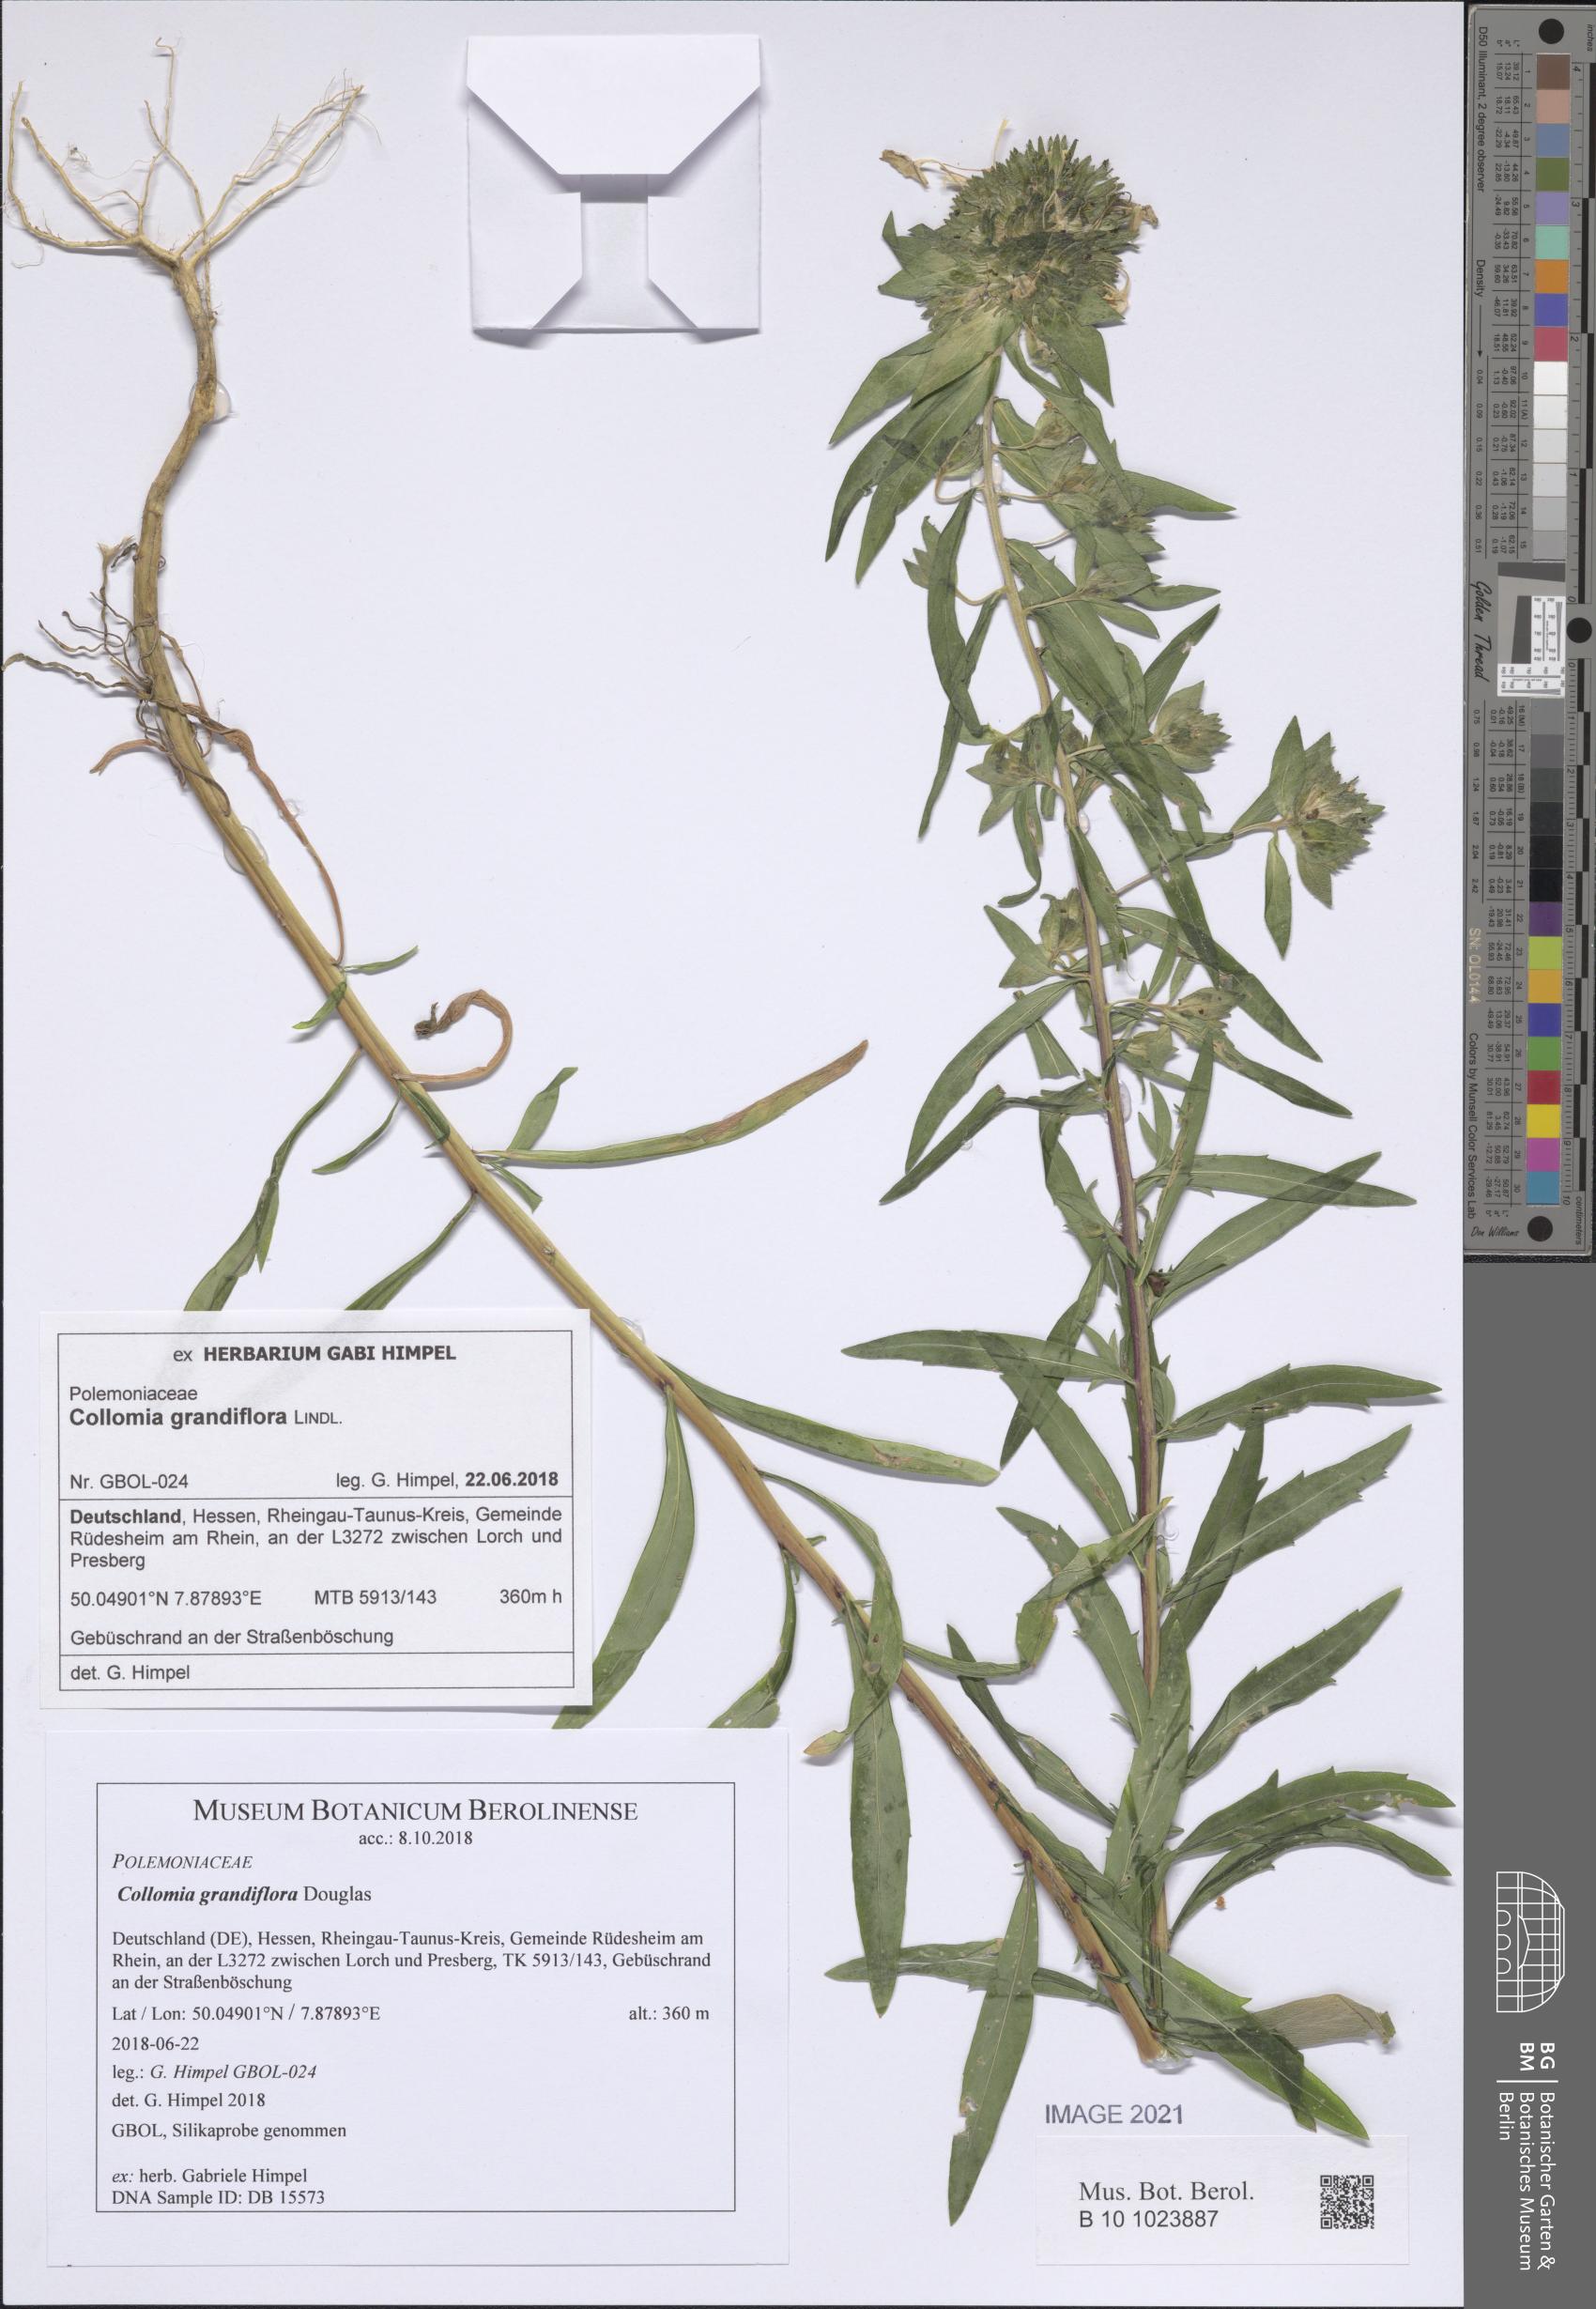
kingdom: Plantae
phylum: Tracheophyta
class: Magnoliopsida
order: Ericales
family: Polemoniaceae
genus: Collomia
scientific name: Collomia grandiflora
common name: California strawflower
